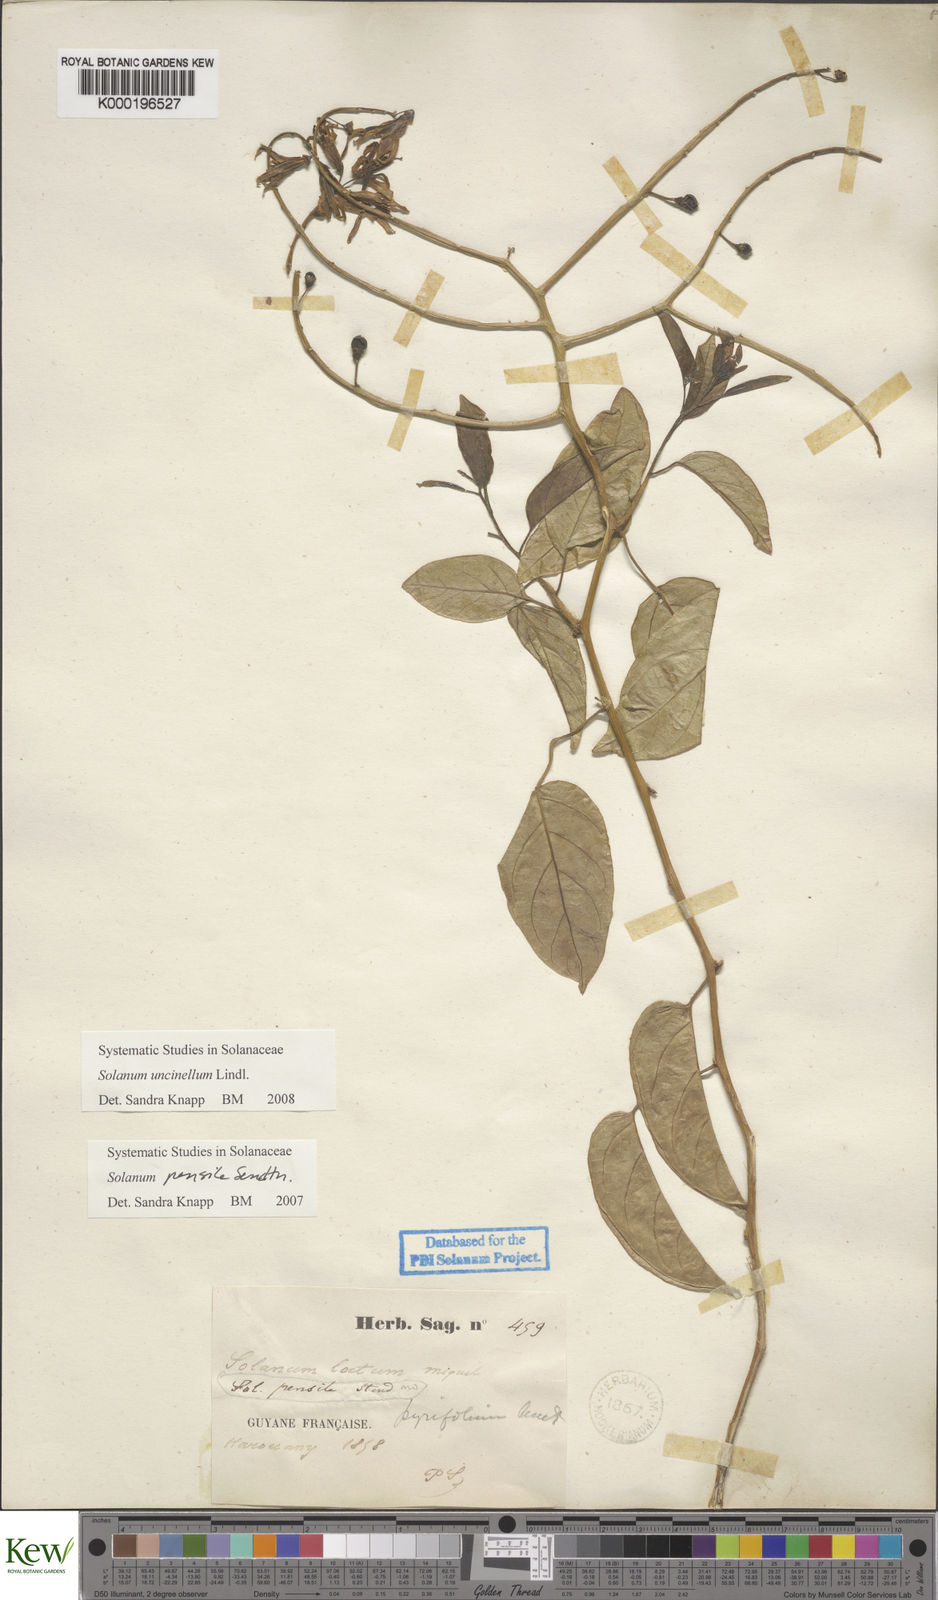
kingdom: Plantae
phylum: Tracheophyta
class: Magnoliopsida
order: Solanales
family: Solanaceae
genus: Solanum
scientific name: Solanum uncinellum
